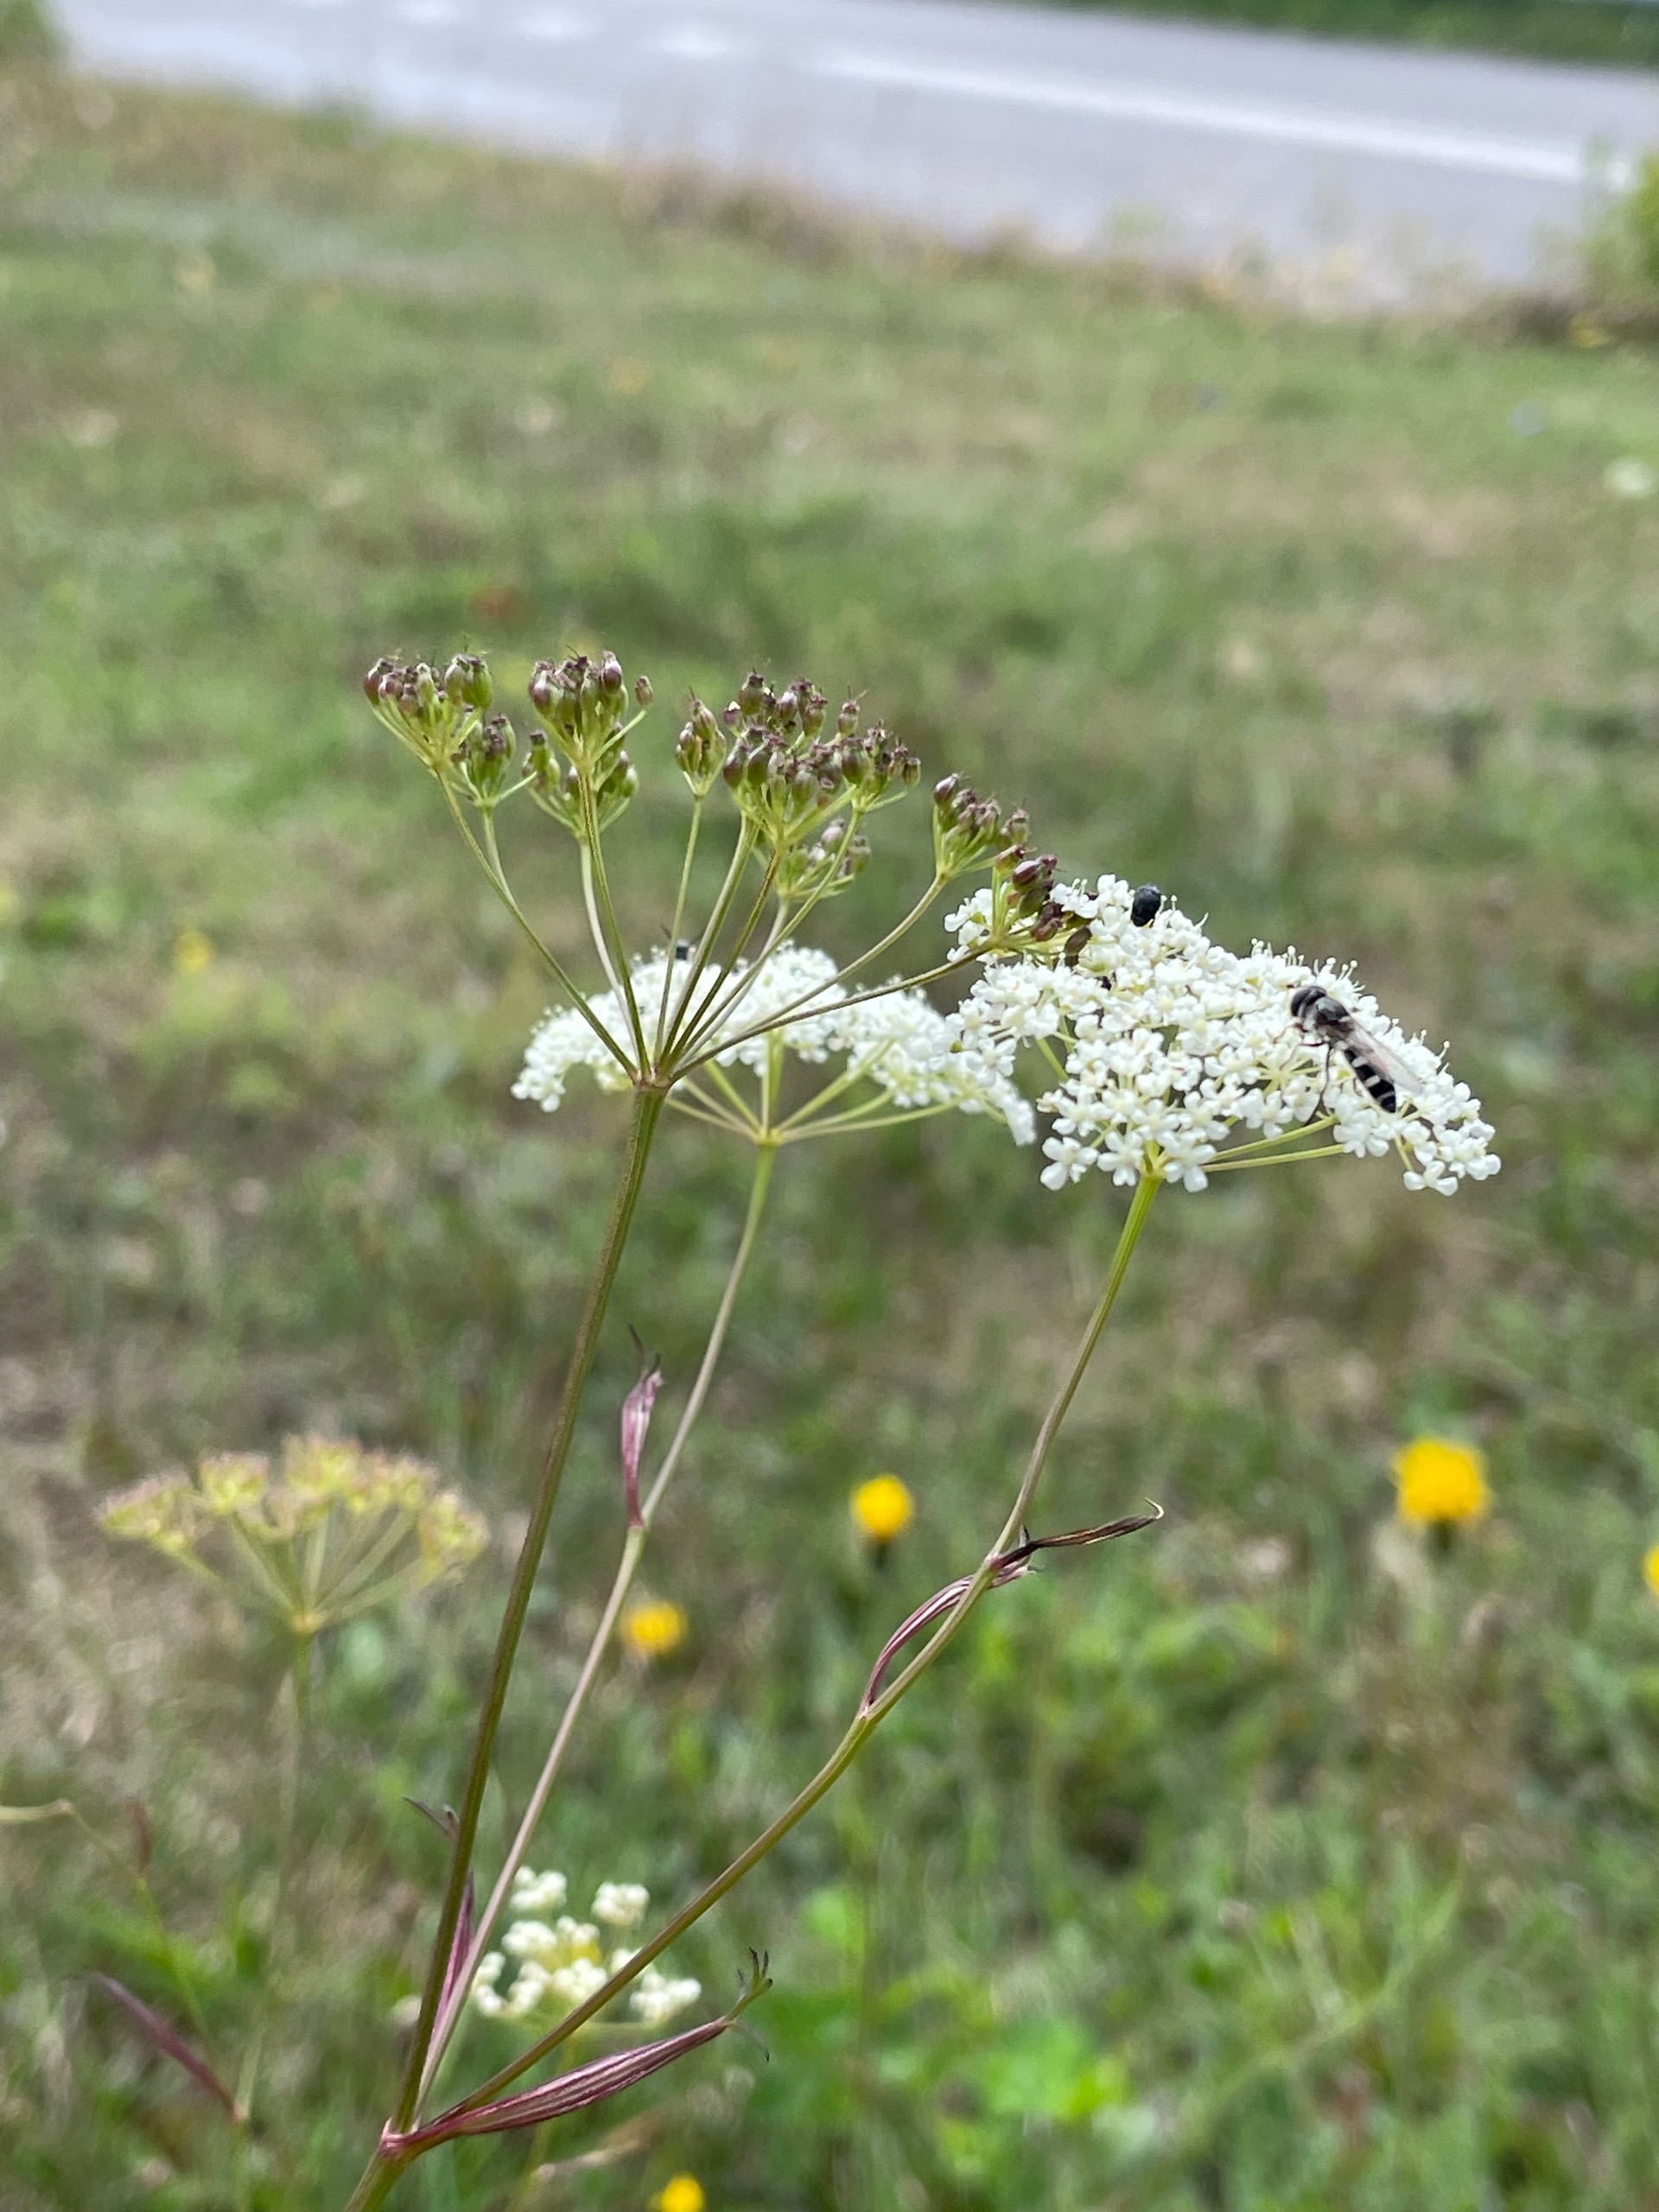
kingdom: Plantae
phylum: Tracheophyta
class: Magnoliopsida
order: Apiales
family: Apiaceae
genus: Pimpinella
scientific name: Pimpinella saxifraga
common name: Almindelig pimpinelle
